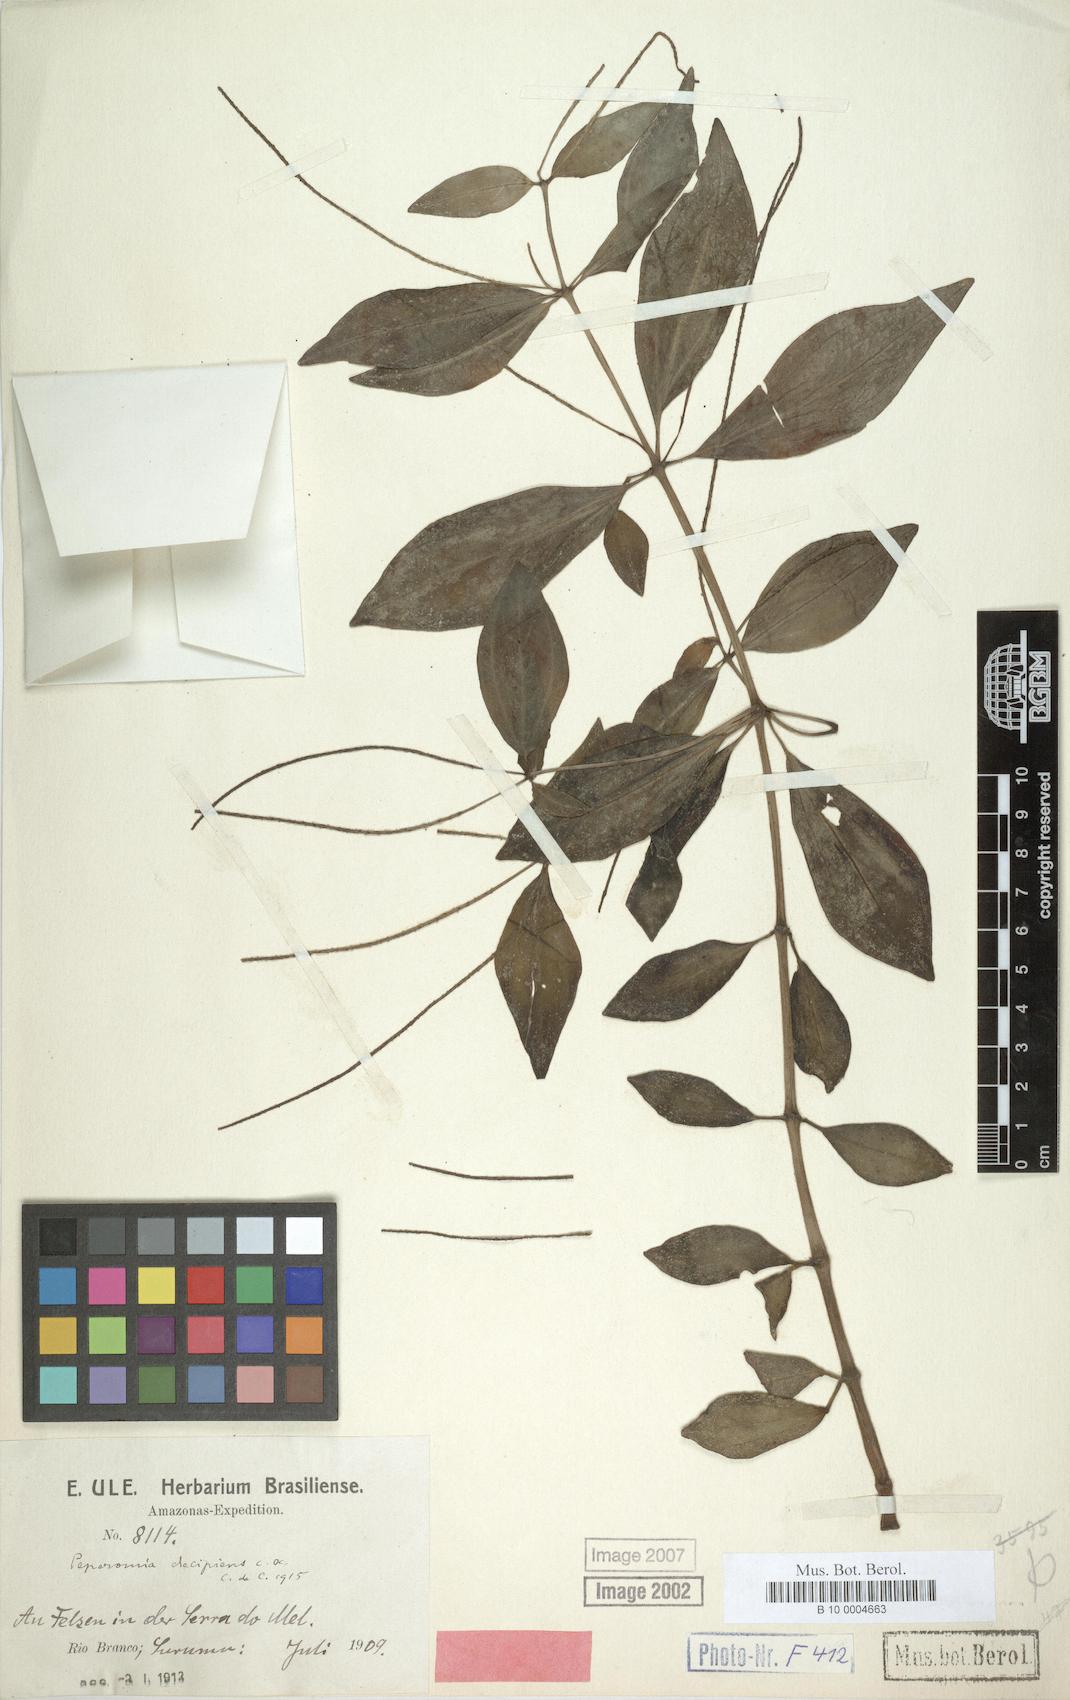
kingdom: Plantae
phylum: Tracheophyta
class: Magnoliopsida
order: Piperales
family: Piperaceae
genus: Peperomia
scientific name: Peperomia blanda
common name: Arid-land peperomia
